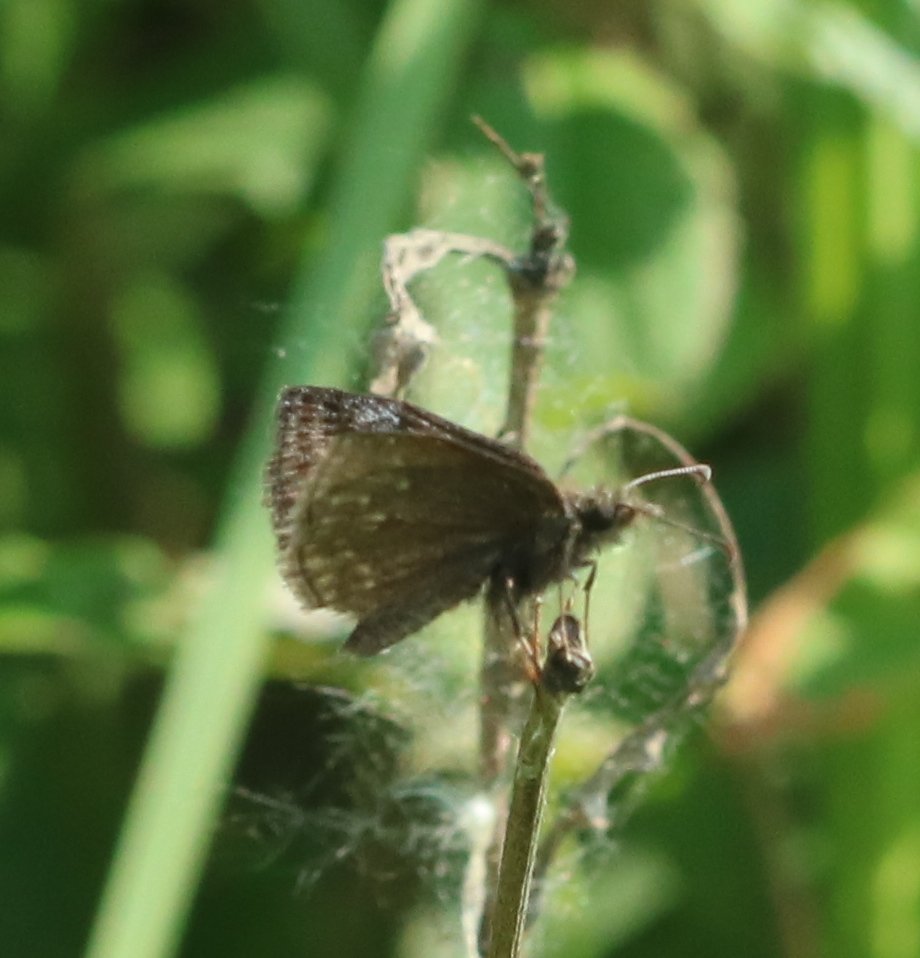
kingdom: Animalia
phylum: Arthropoda
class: Insecta
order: Lepidoptera
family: Hesperiidae
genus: Erynnis
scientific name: Erynnis icelus
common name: Dreamy Duskywing
